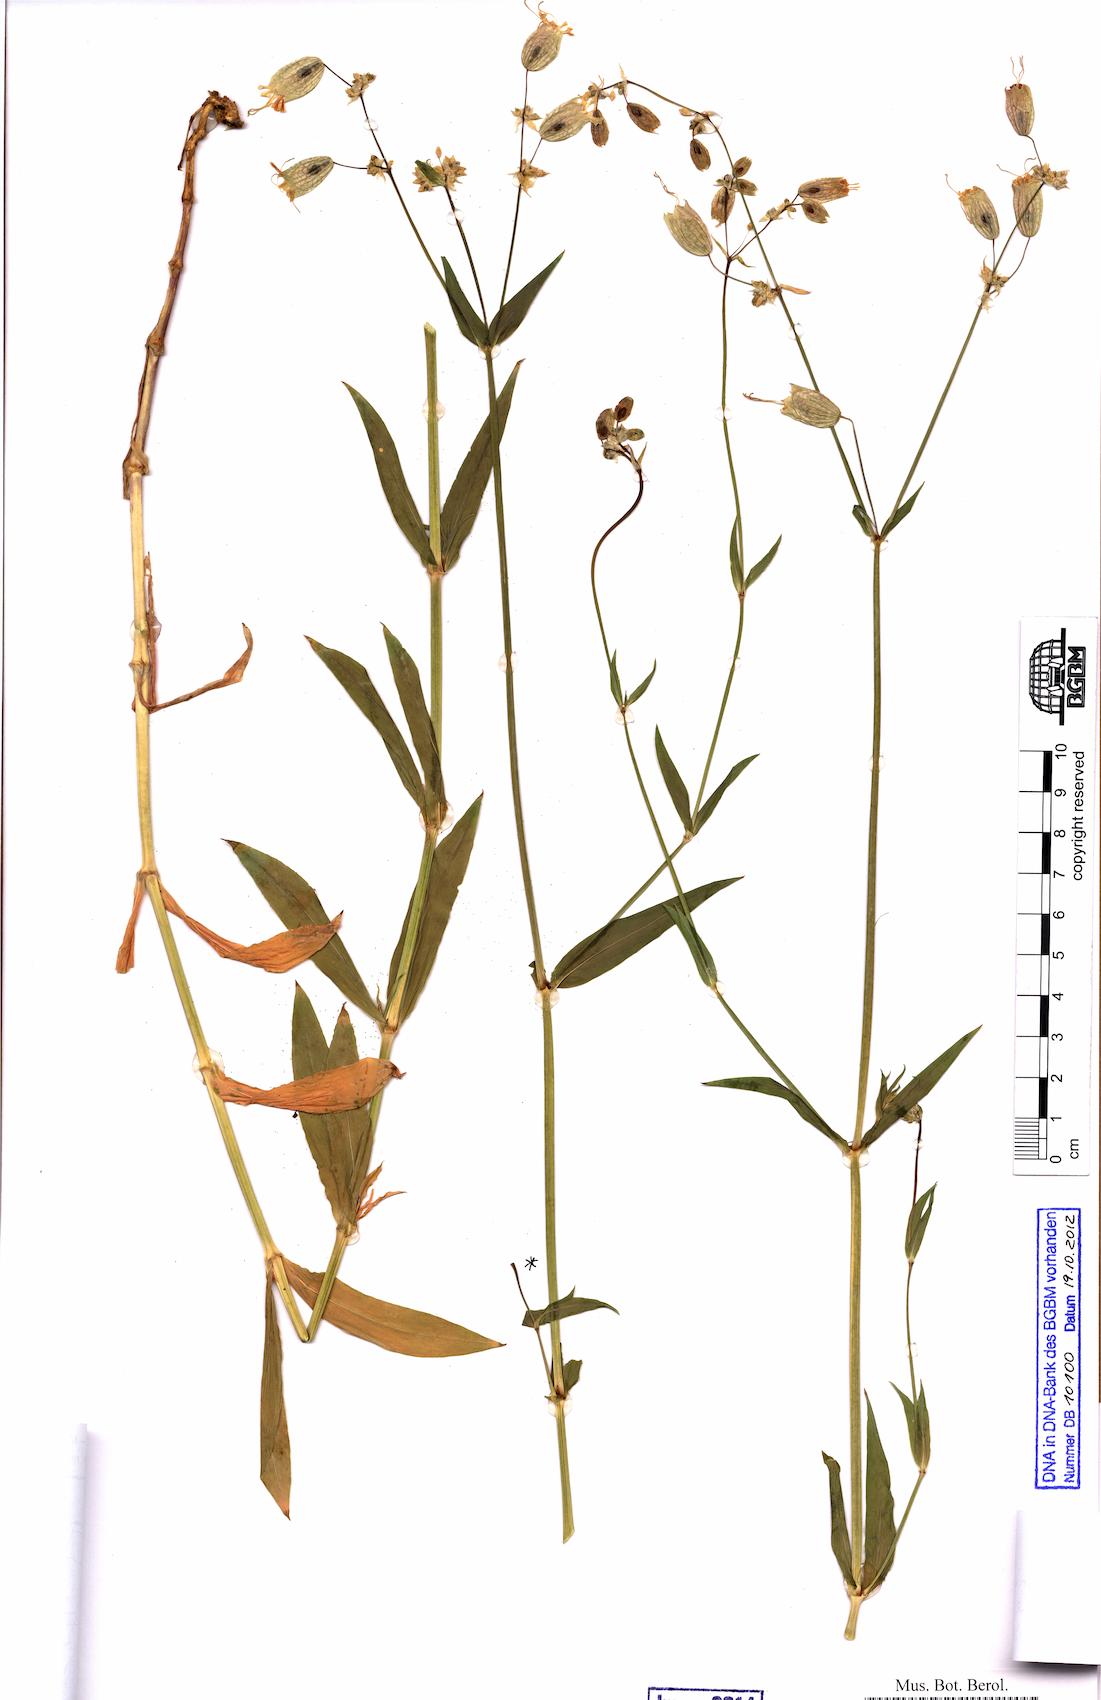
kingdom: Plantae
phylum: Tracheophyta
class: Magnoliopsida
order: Caryophyllales
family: Caryophyllaceae
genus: Silene
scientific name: Silene vulgaris
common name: Bladder campion
